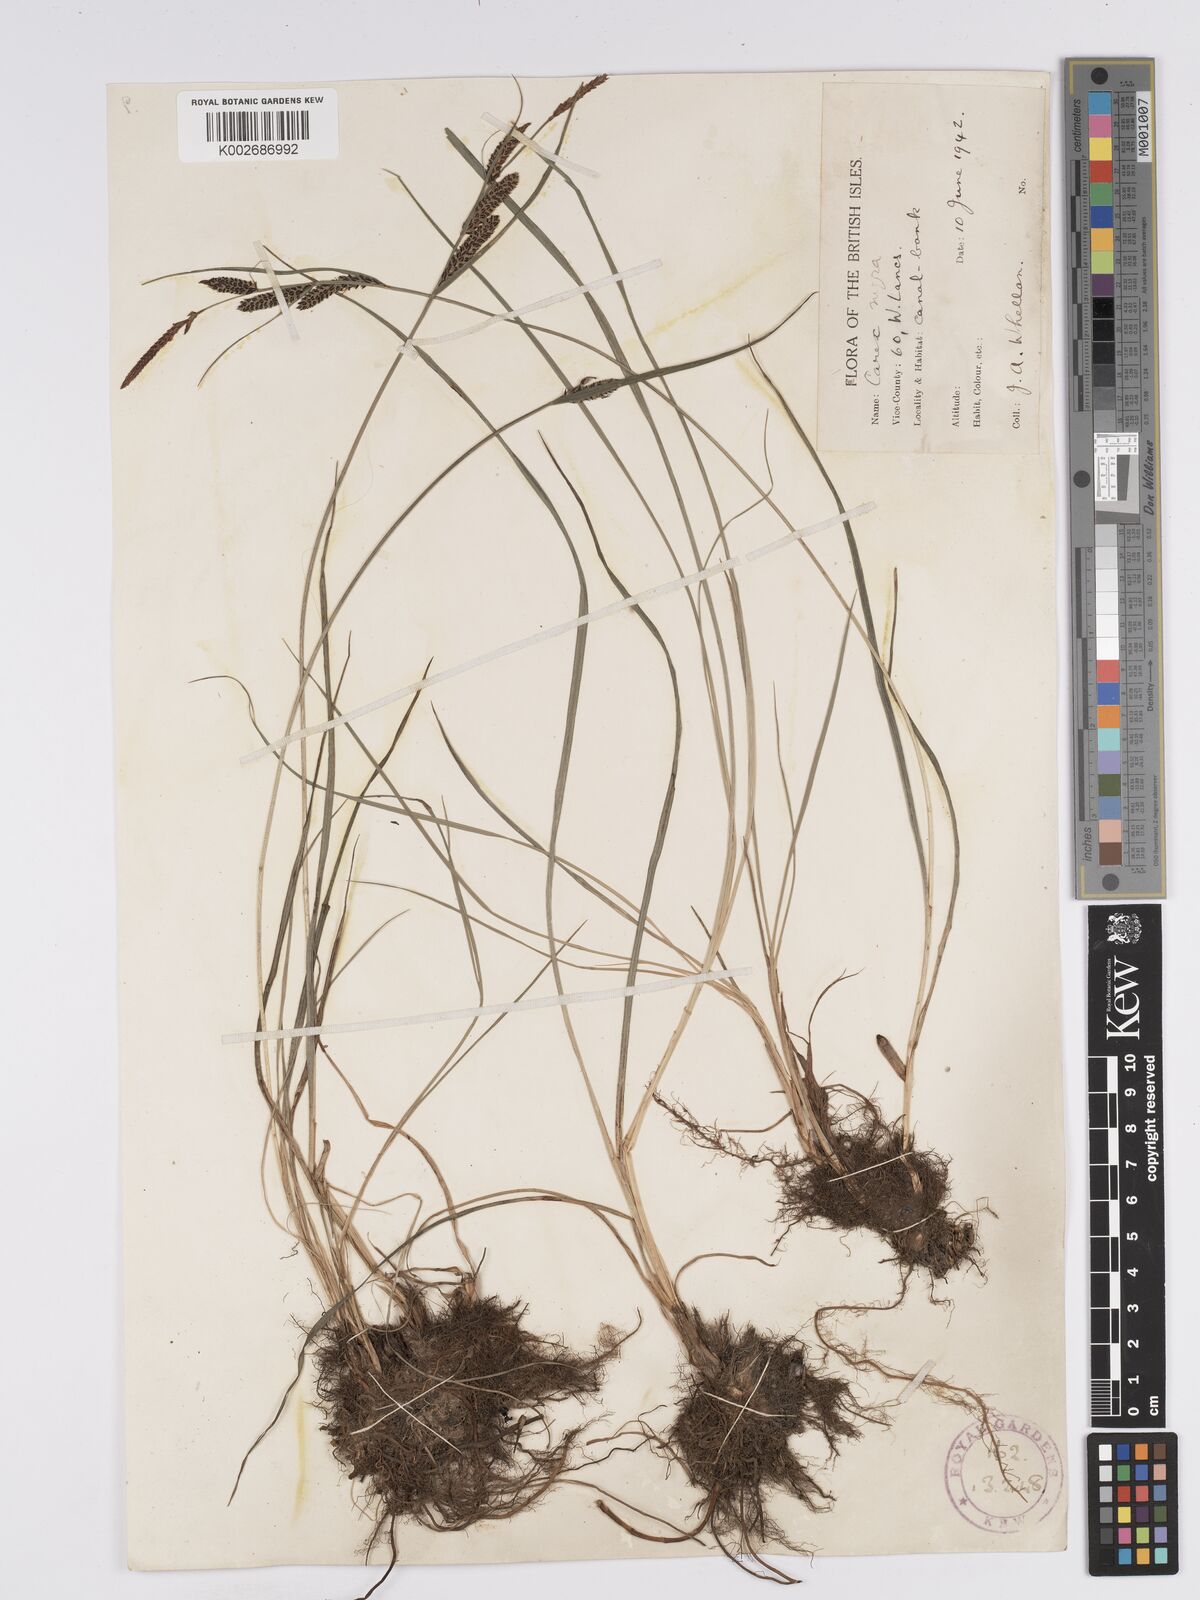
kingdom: Plantae
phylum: Tracheophyta
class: Liliopsida
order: Poales
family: Cyperaceae
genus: Carex
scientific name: Carex nigra
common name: Common sedge
